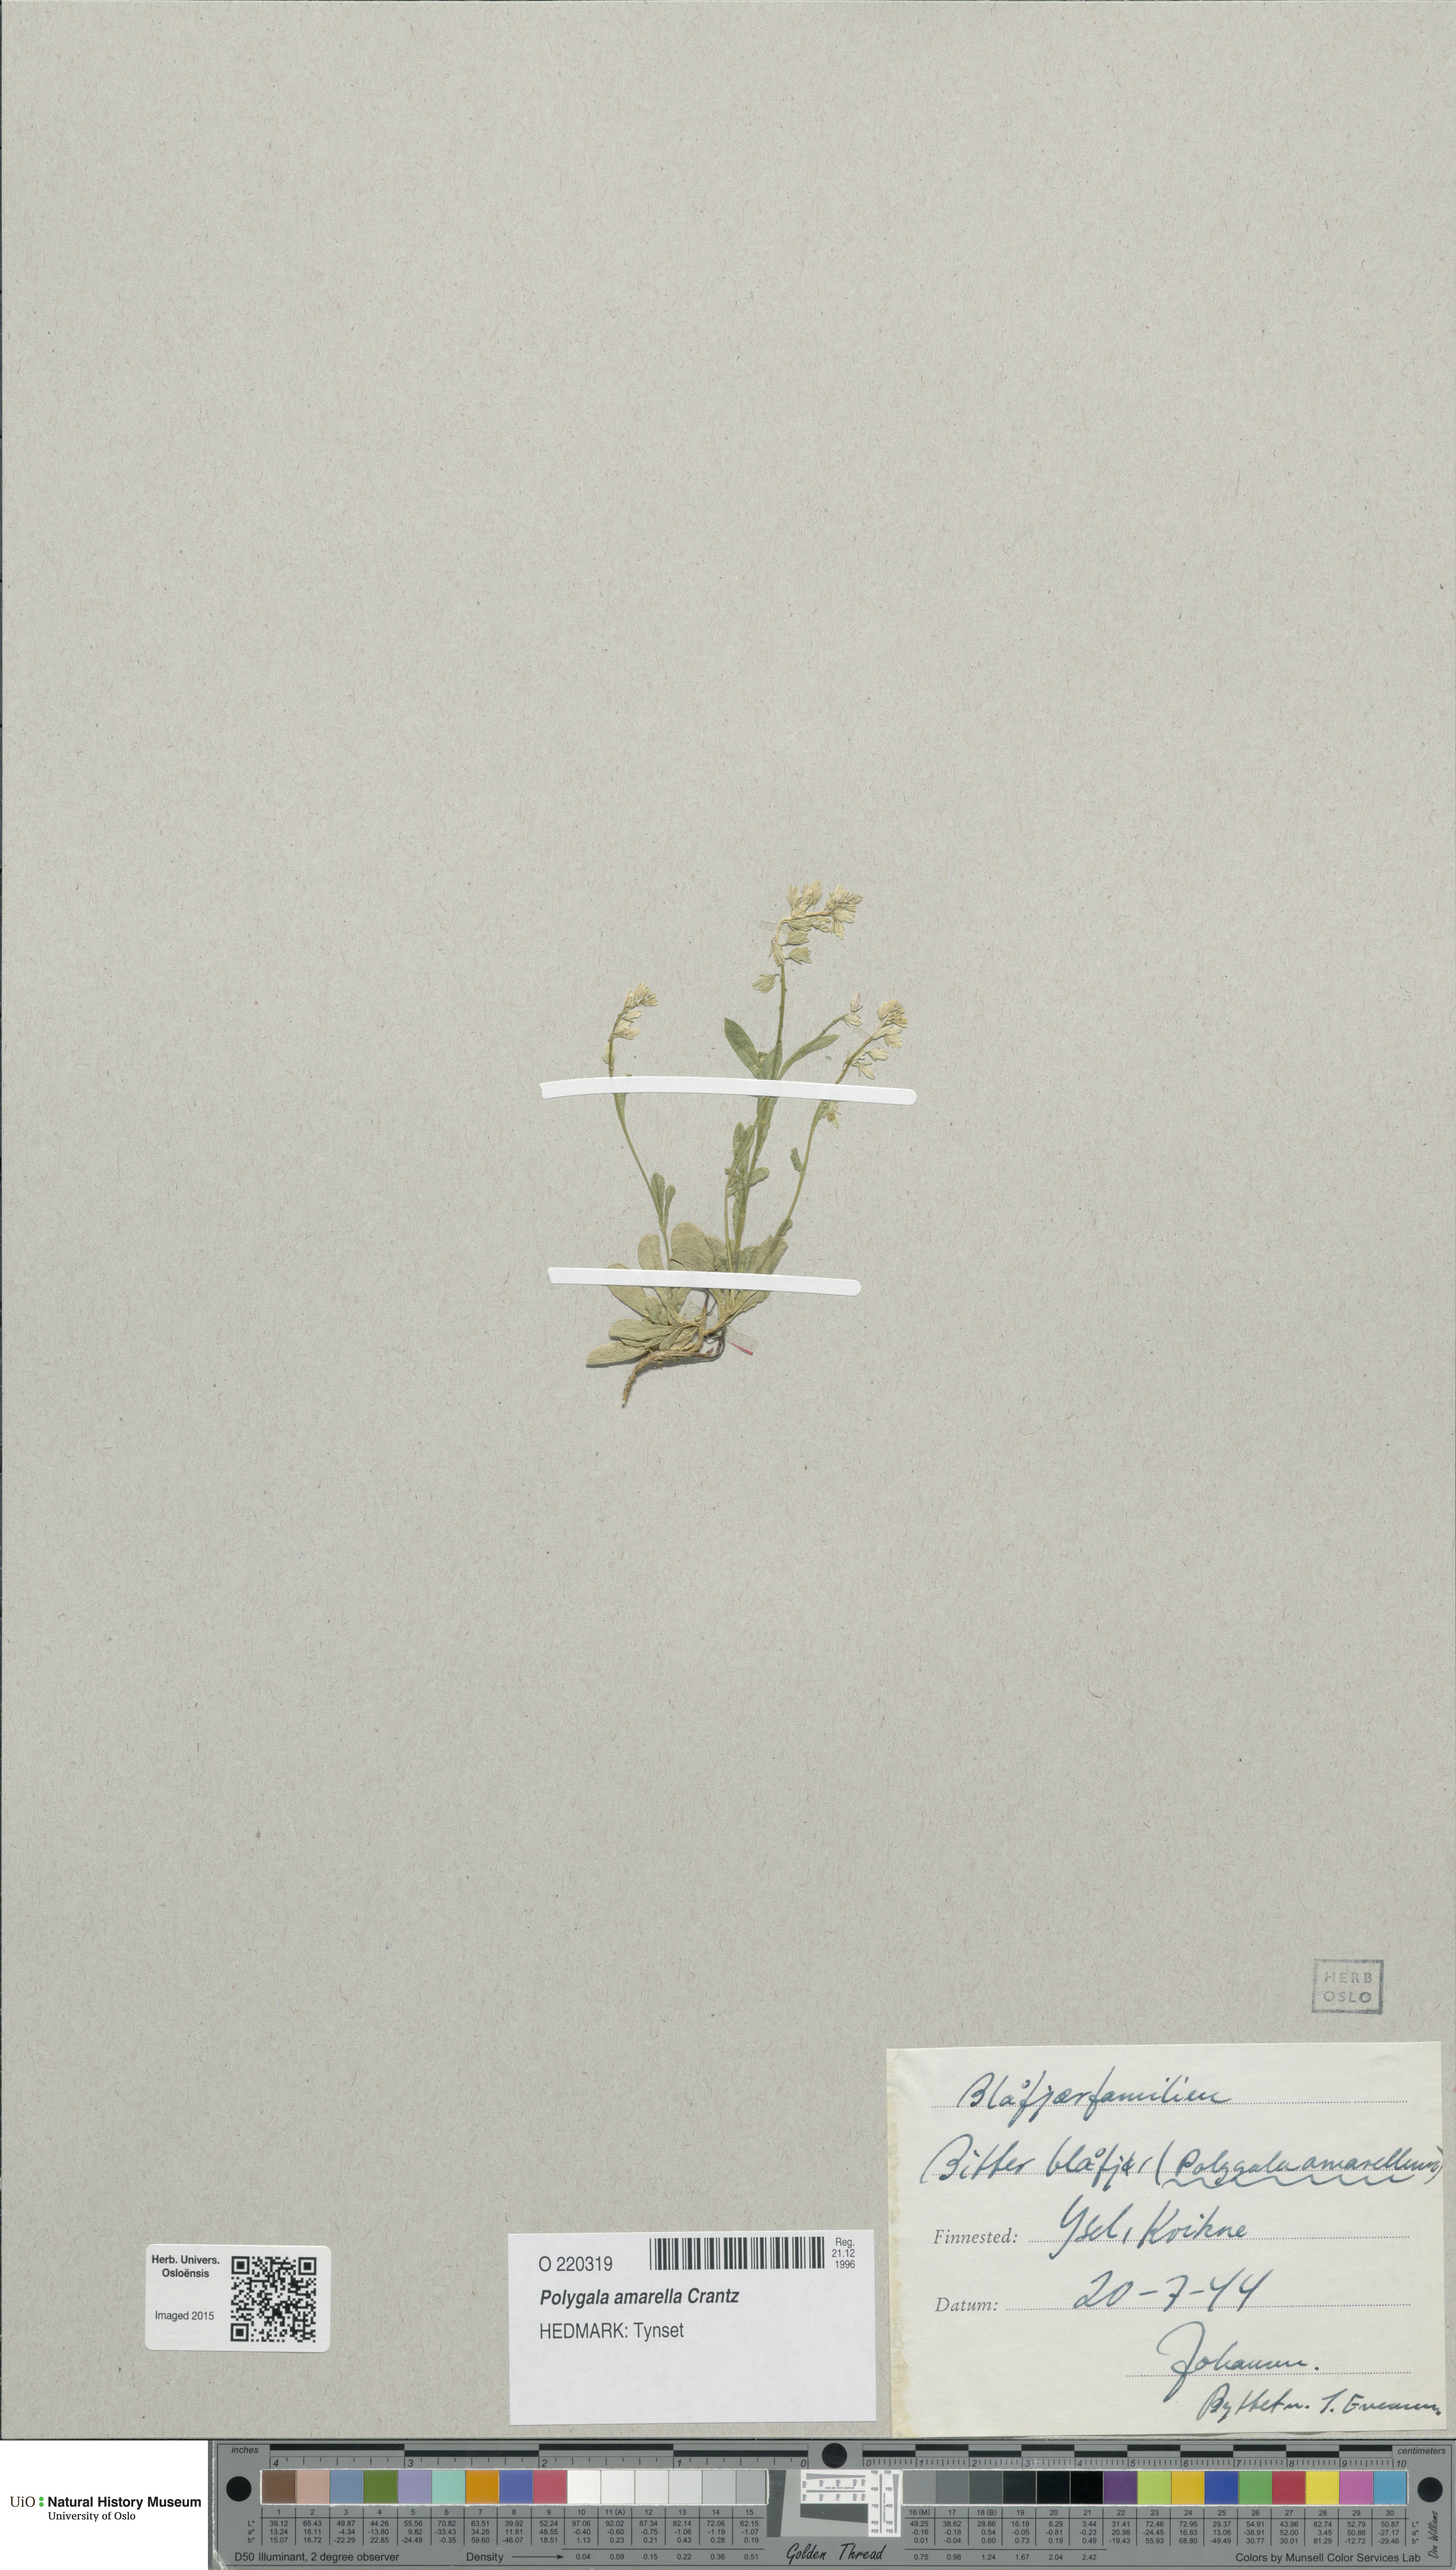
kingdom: Plantae
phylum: Tracheophyta
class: Magnoliopsida
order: Fabales
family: Polygalaceae
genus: Polygala
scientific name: Polygala amarella
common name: Dwarf milkwort
